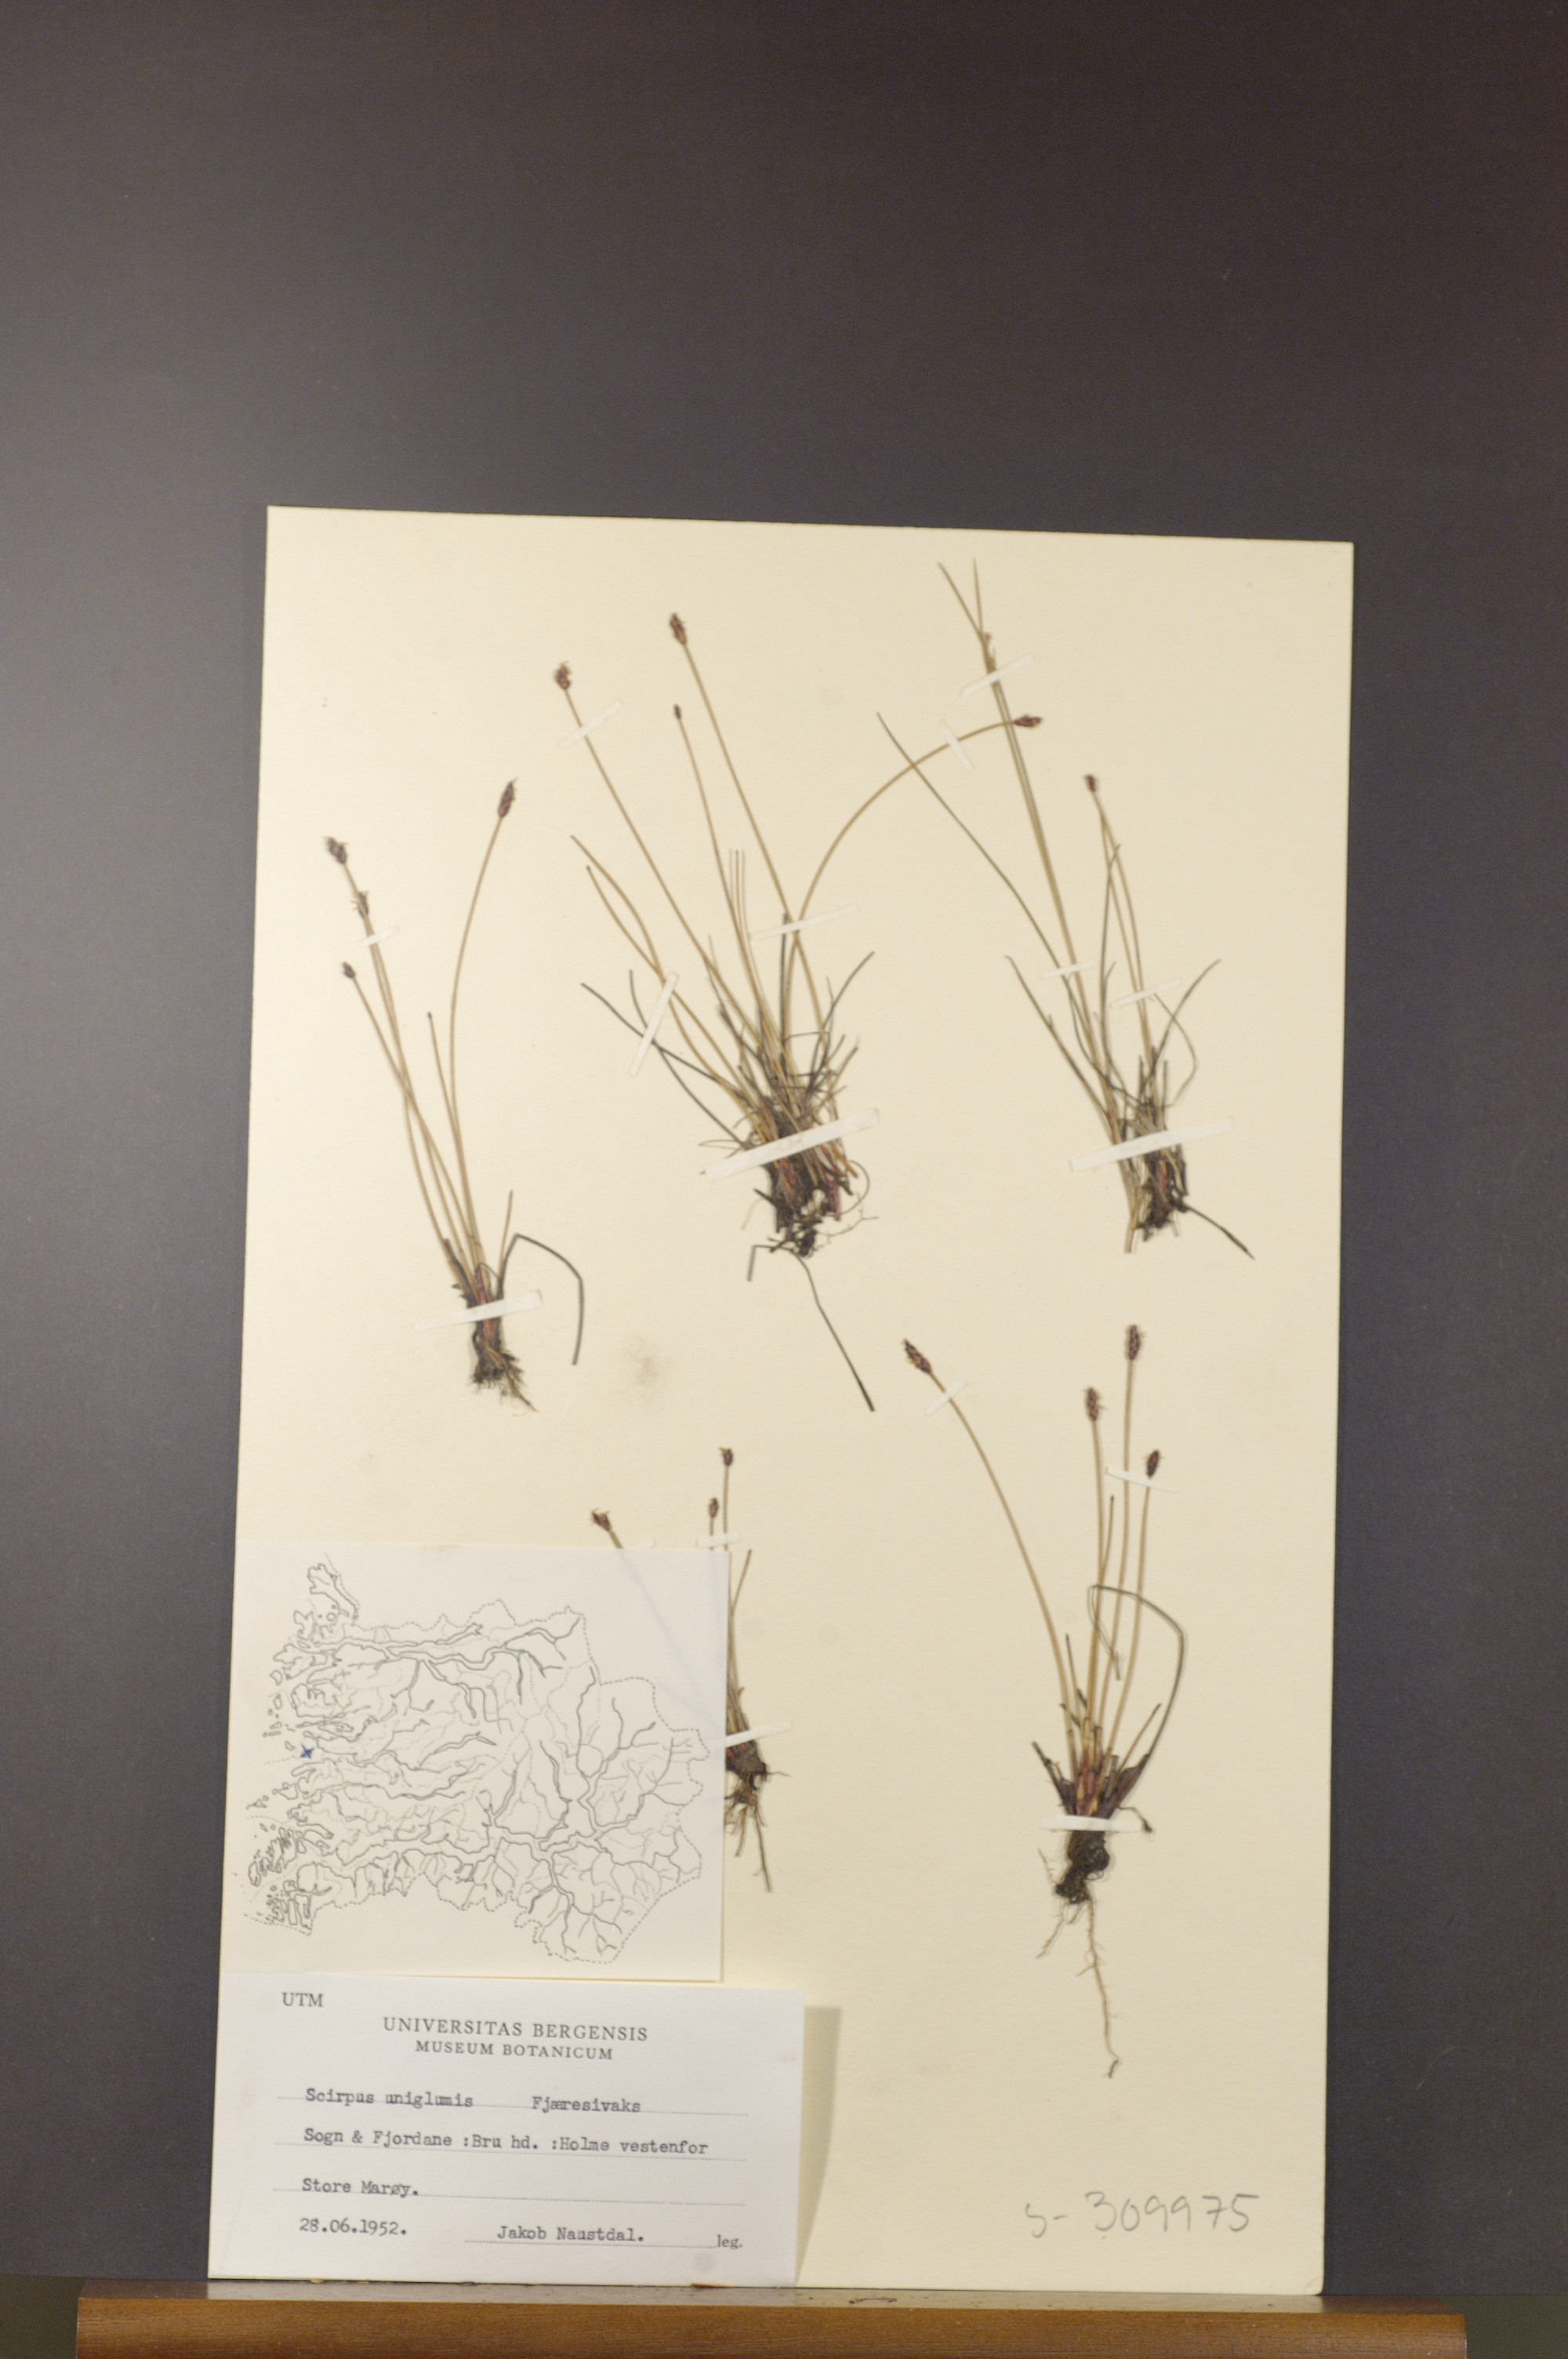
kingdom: Plantae
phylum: Tracheophyta
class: Liliopsida
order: Poales
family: Cyperaceae
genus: Eleocharis
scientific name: Eleocharis uniglumis
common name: Slender spike-rush
